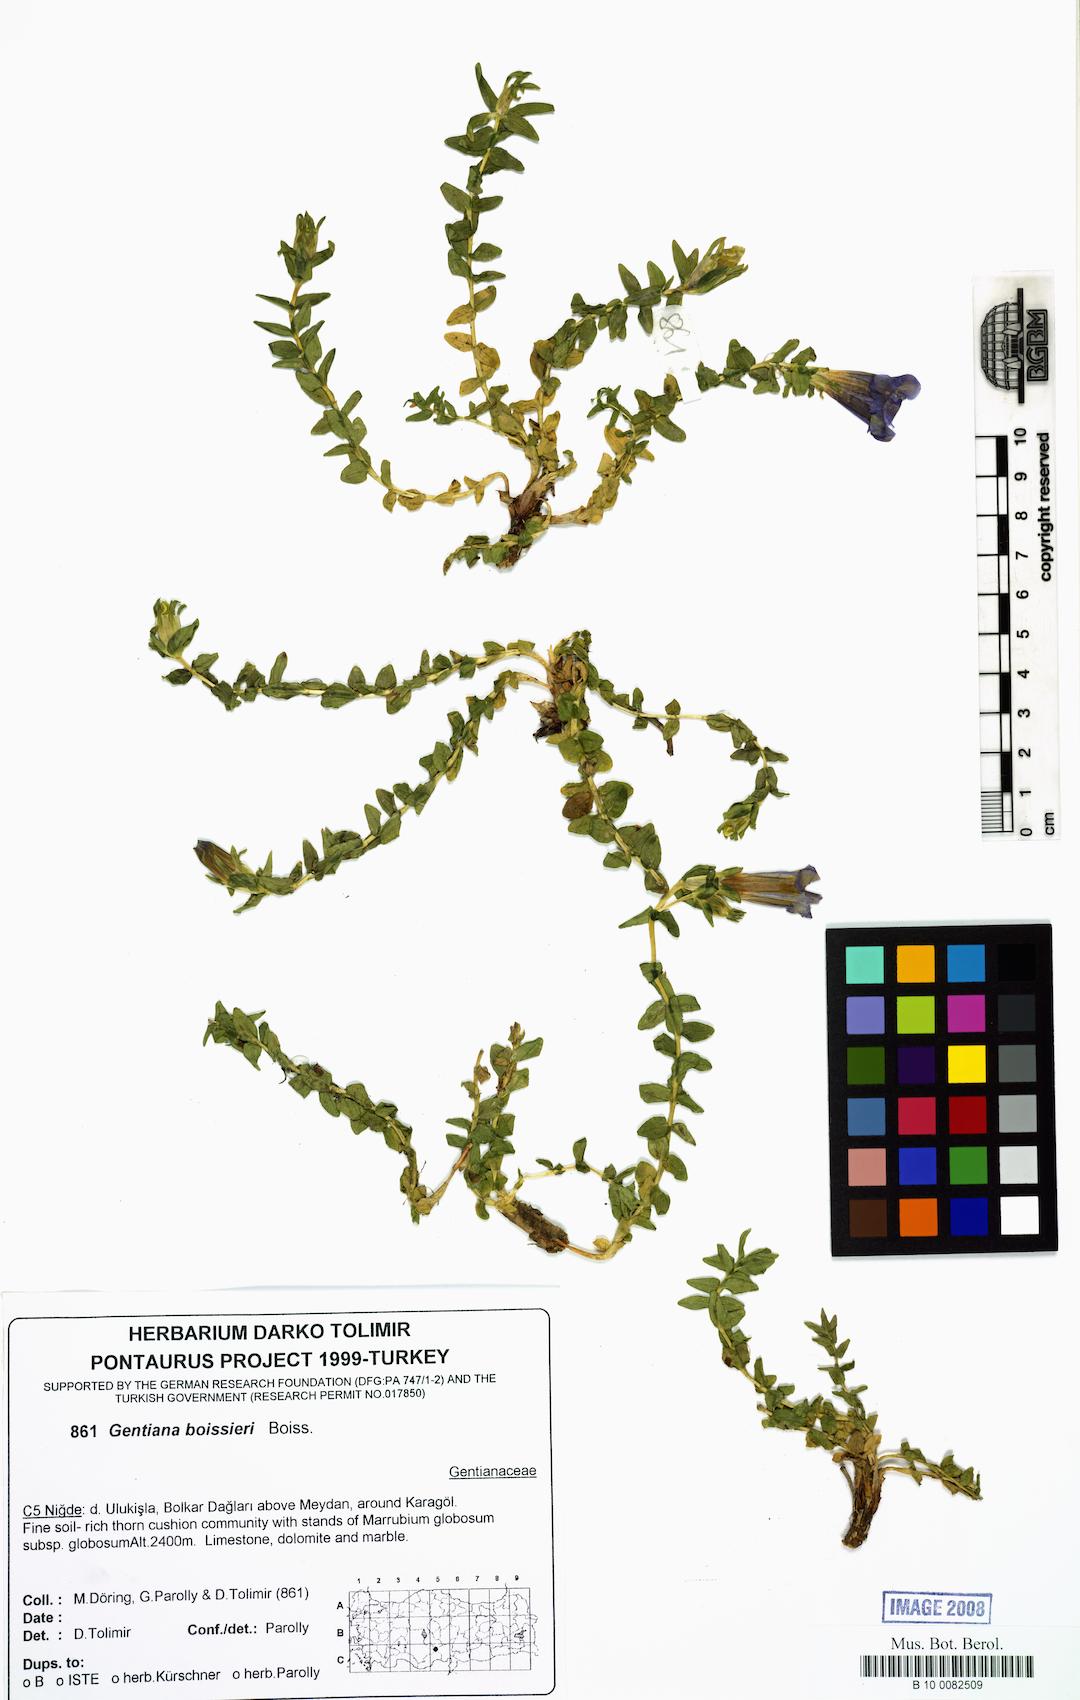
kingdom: Plantae
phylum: Tracheophyta
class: Magnoliopsida
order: Gentianales
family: Gentianaceae
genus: Gentiana
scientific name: Gentiana boissieri
